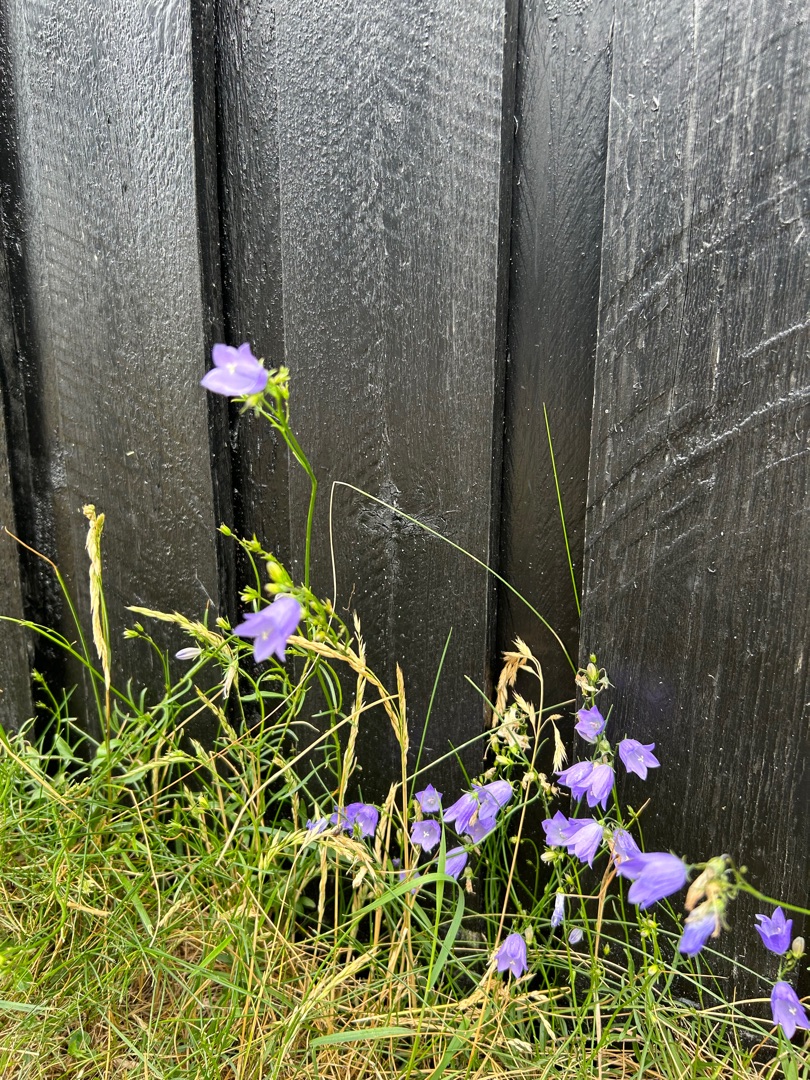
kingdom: Plantae
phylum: Tracheophyta
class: Magnoliopsida
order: Asterales
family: Campanulaceae
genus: Campanula
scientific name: Campanula rotundifolia
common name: Liden klokke
